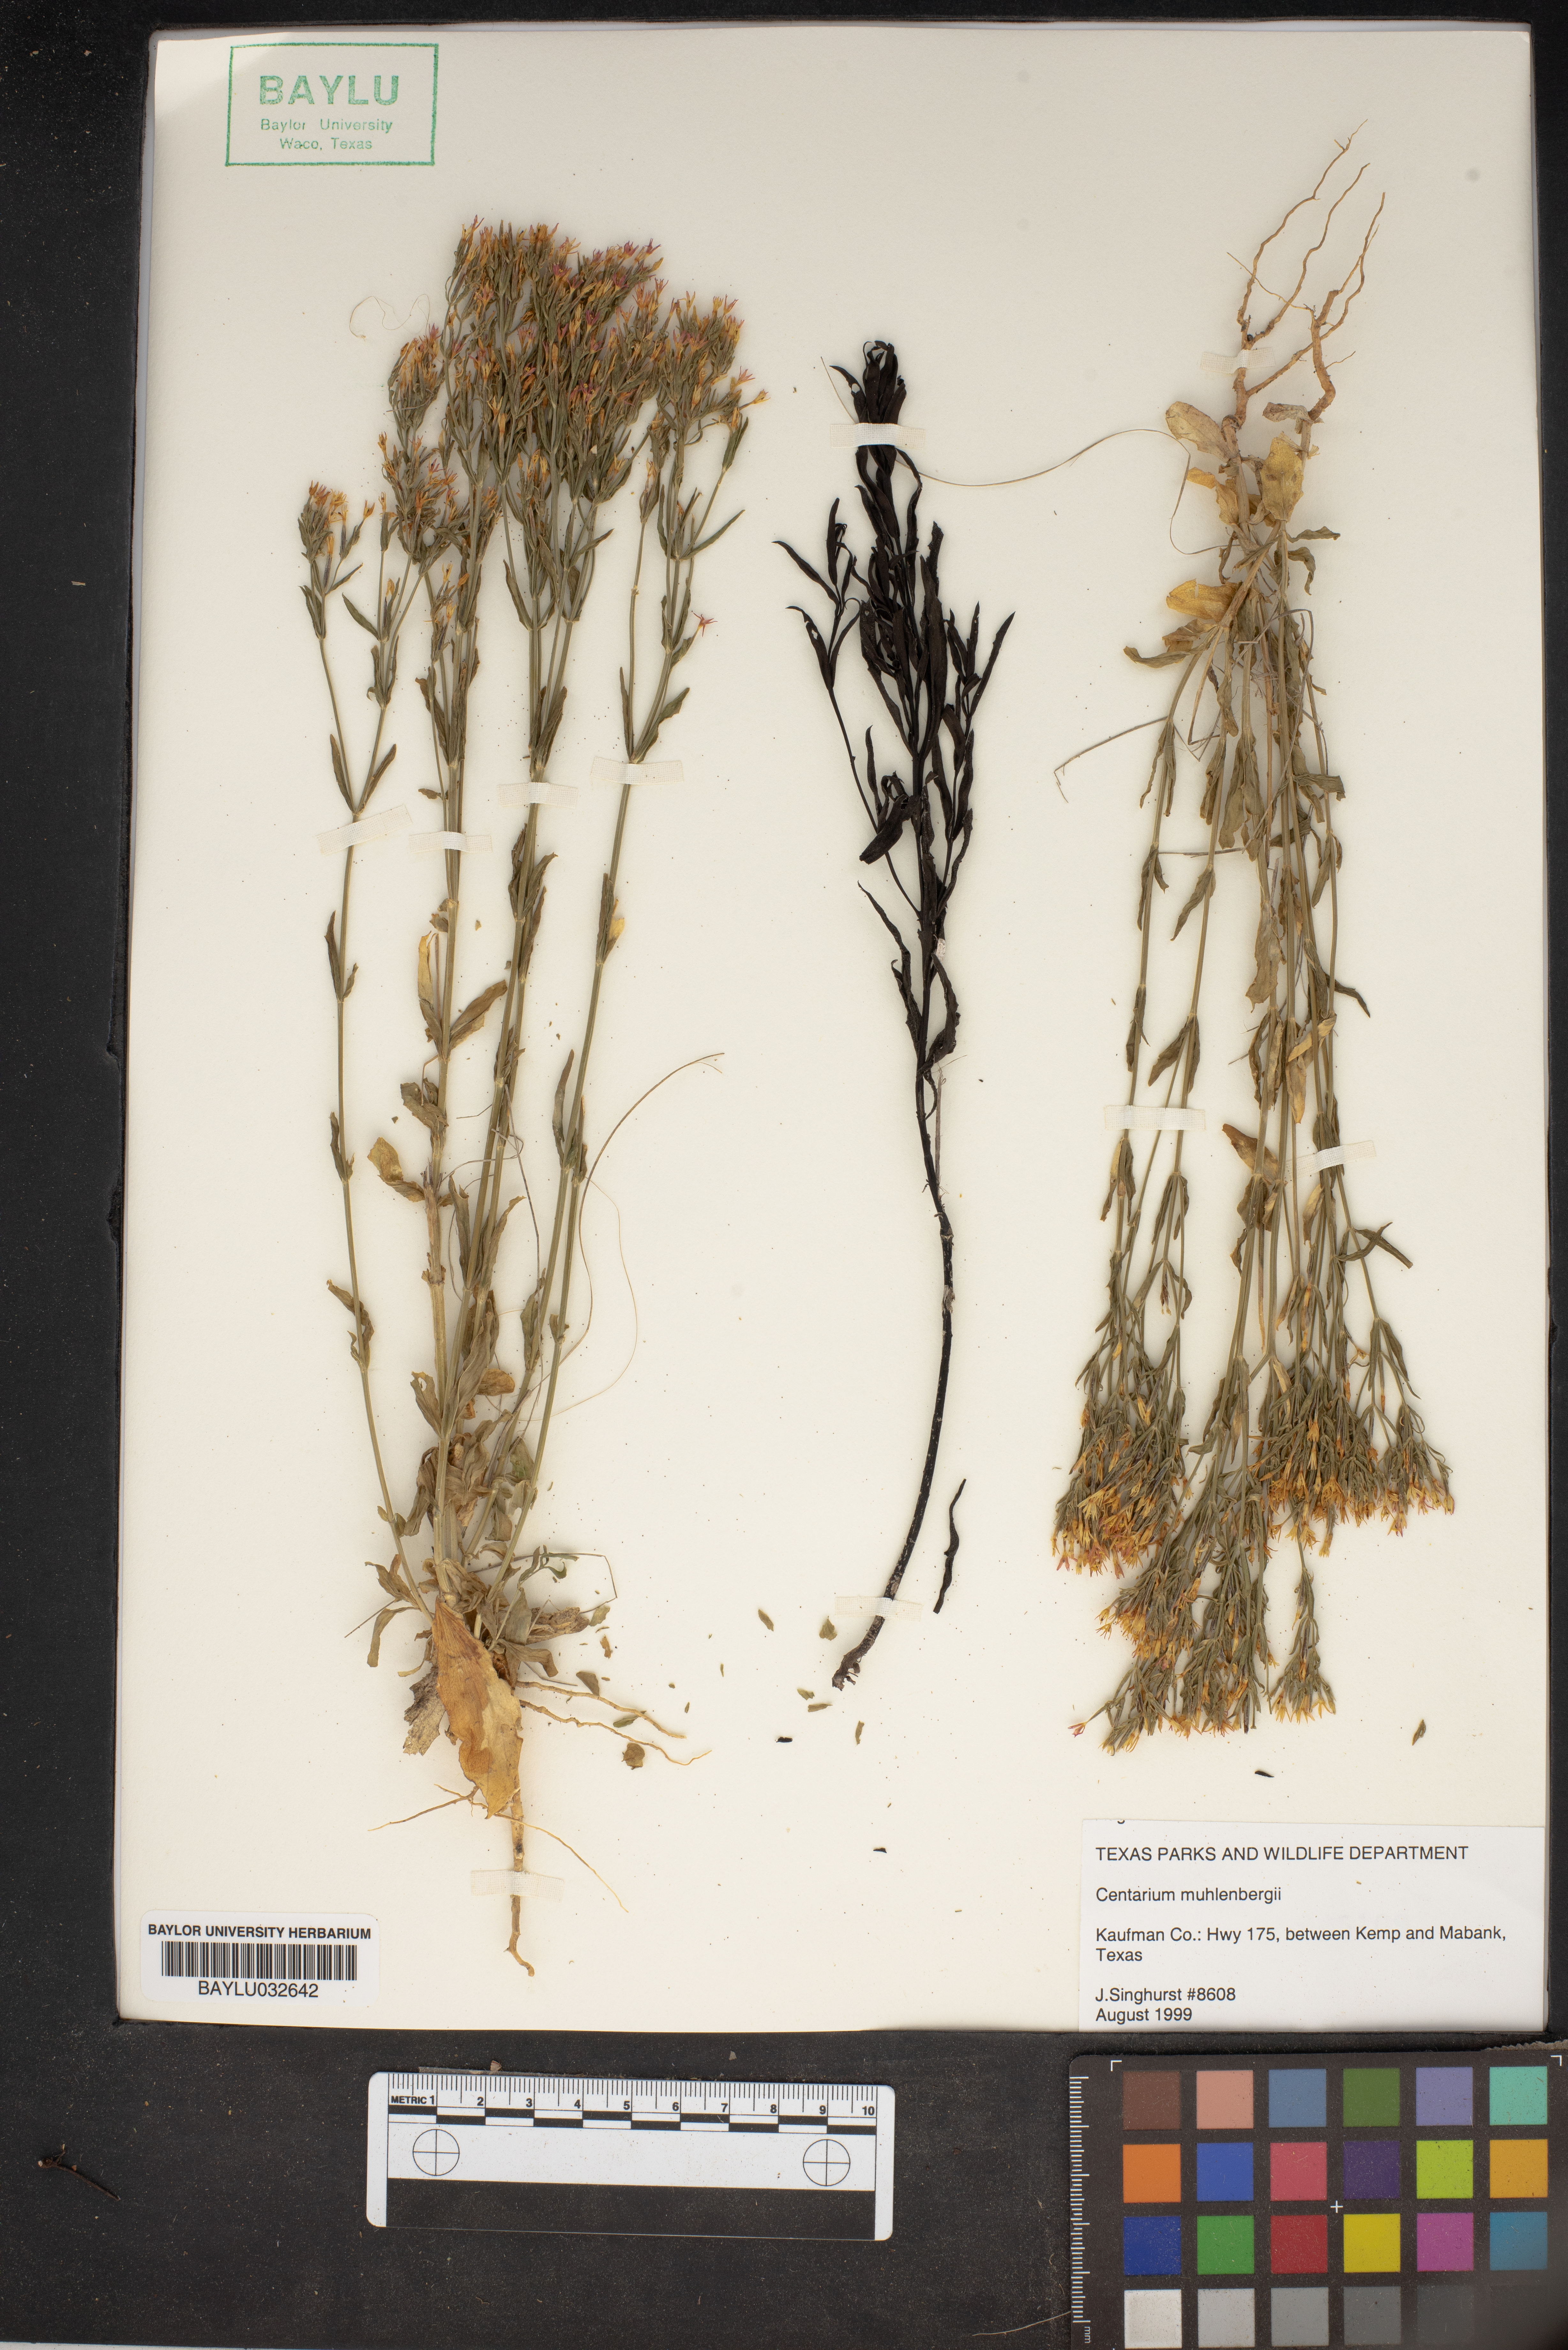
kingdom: Plantae
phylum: Tracheophyta
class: Magnoliopsida
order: Gentianales
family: Gentianaceae
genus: Zeltnera
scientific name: Zeltnera muhlenbergii
